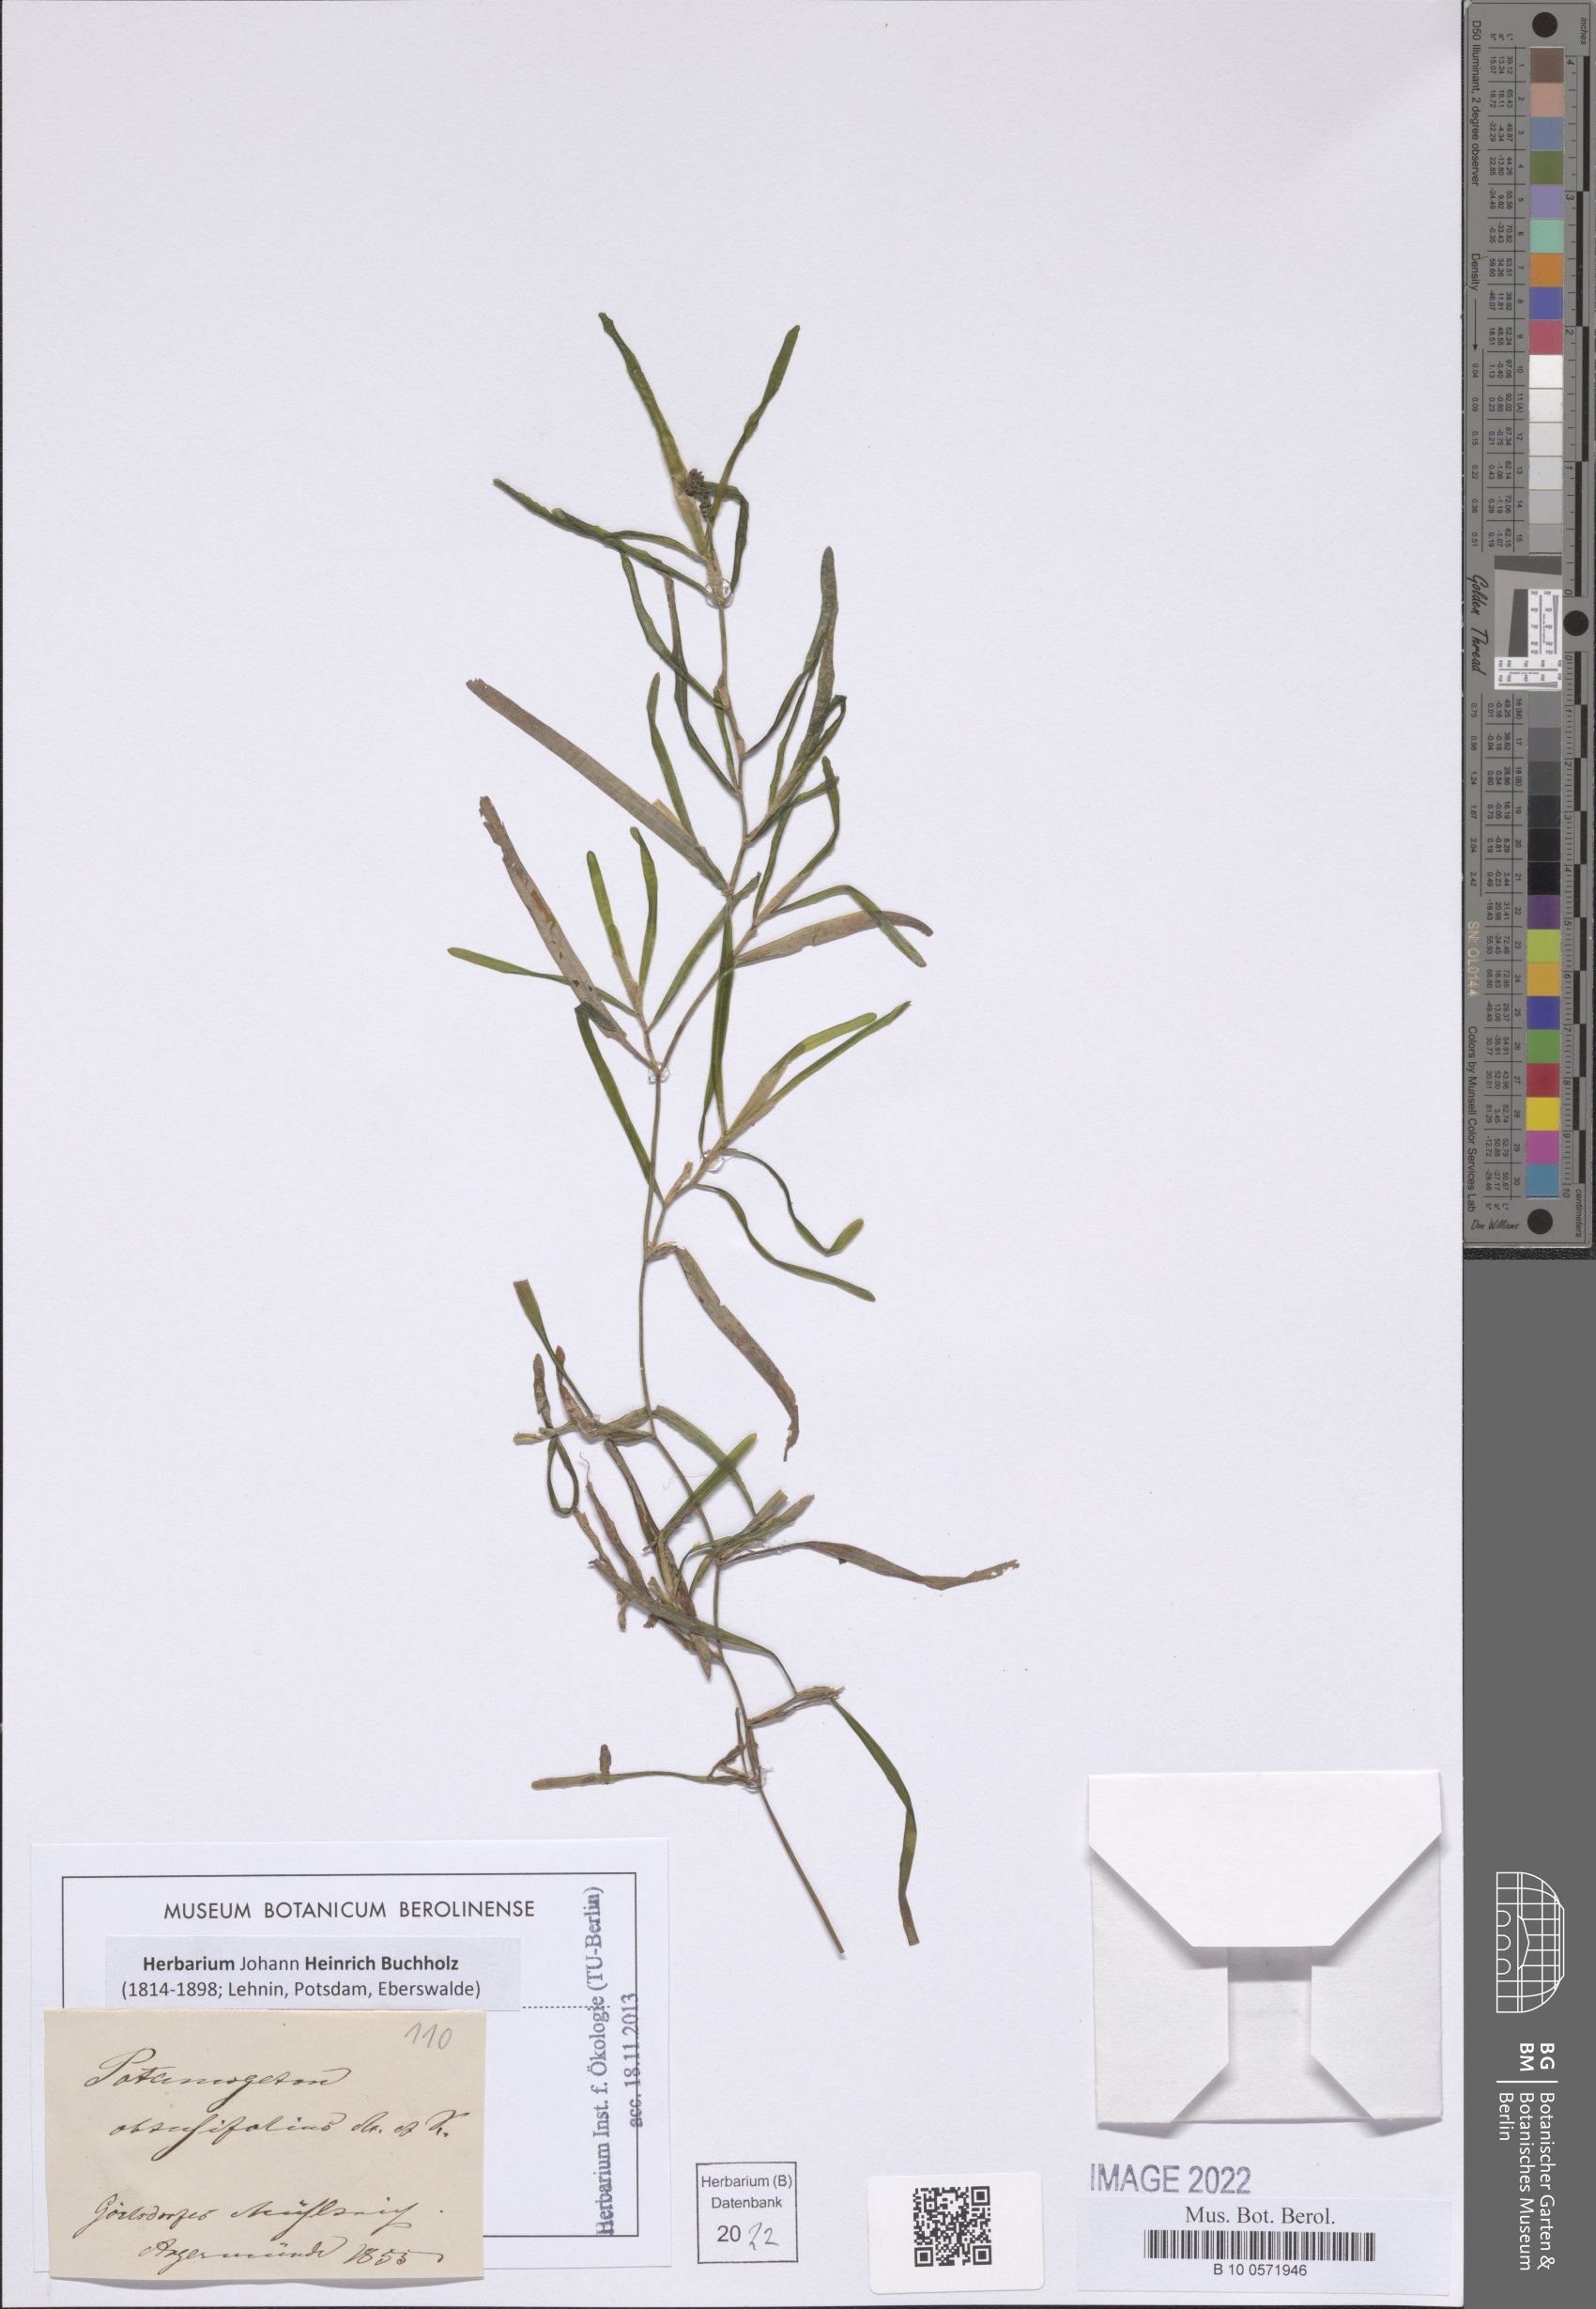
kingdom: Plantae
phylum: Tracheophyta
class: Liliopsida
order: Alismatales
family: Potamogetonaceae
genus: Potamogeton
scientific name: Potamogeton obtusifolius
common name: Blunt-leaved pondweed
